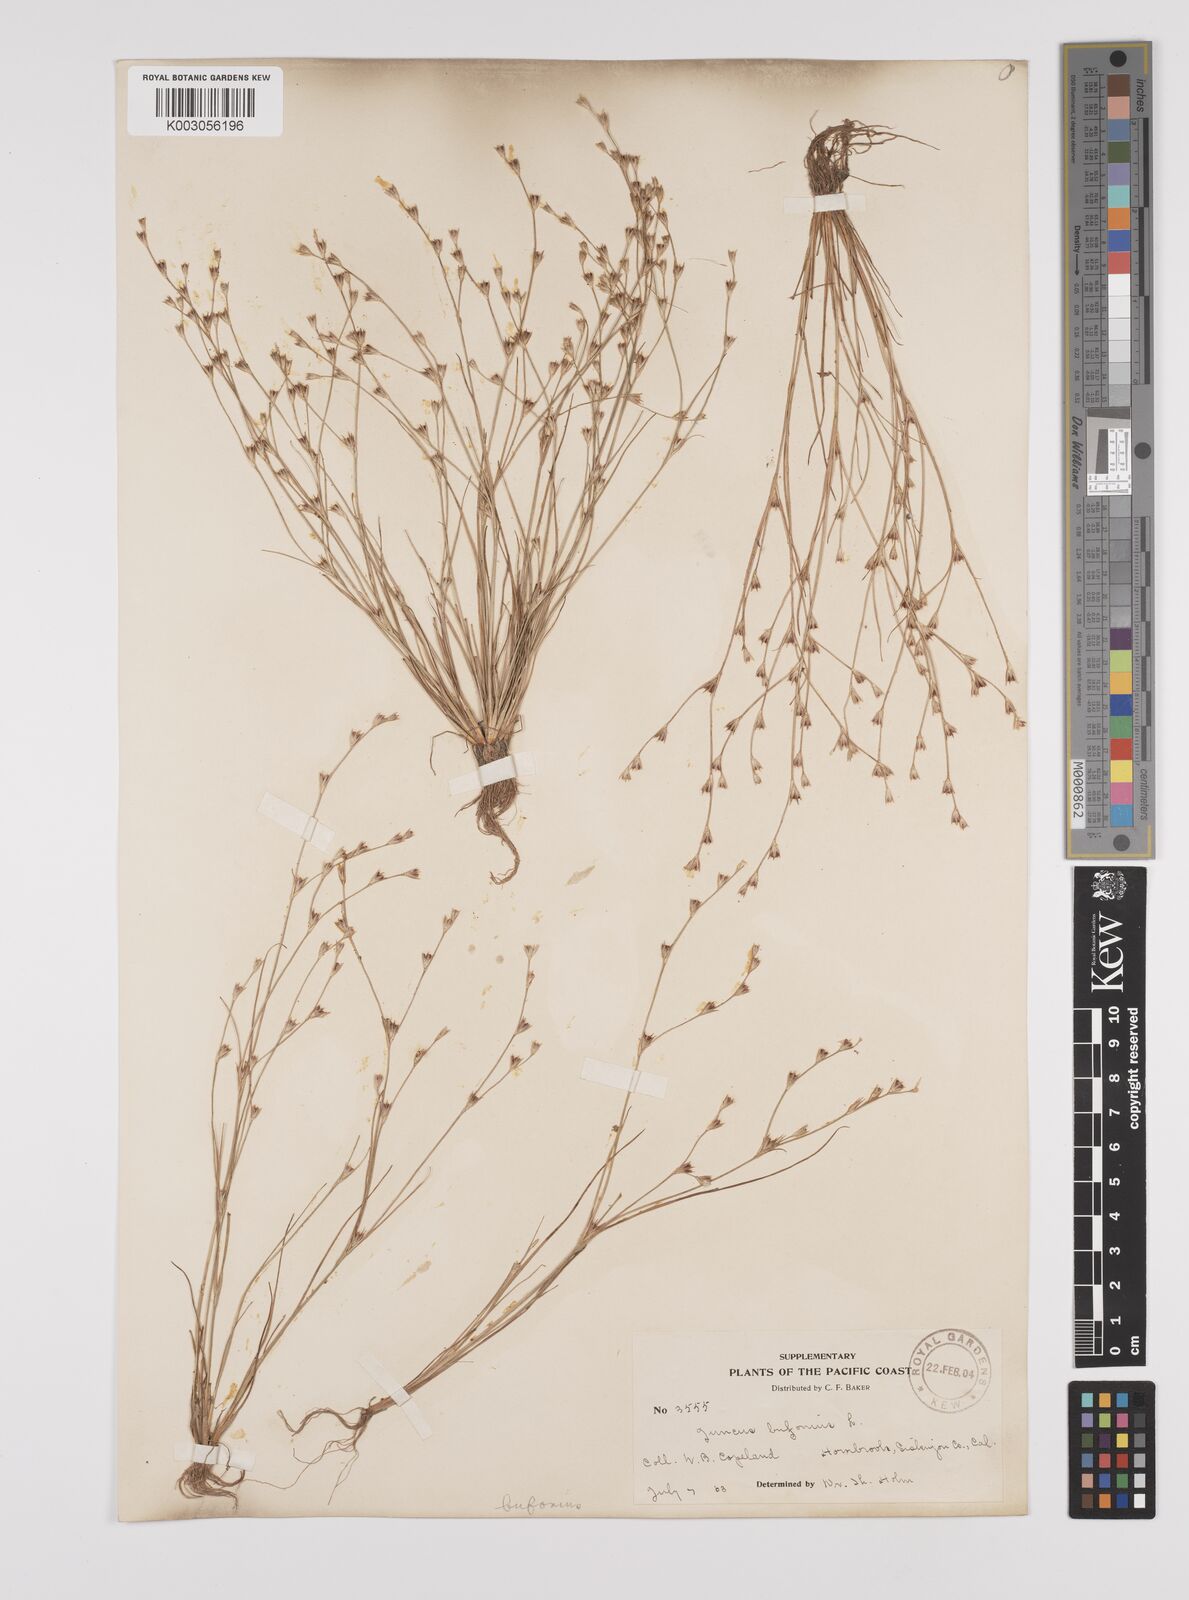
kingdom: Plantae
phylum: Tracheophyta
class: Liliopsida
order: Poales
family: Juncaceae
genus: Juncus
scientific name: Juncus bufonius
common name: Toad rush
